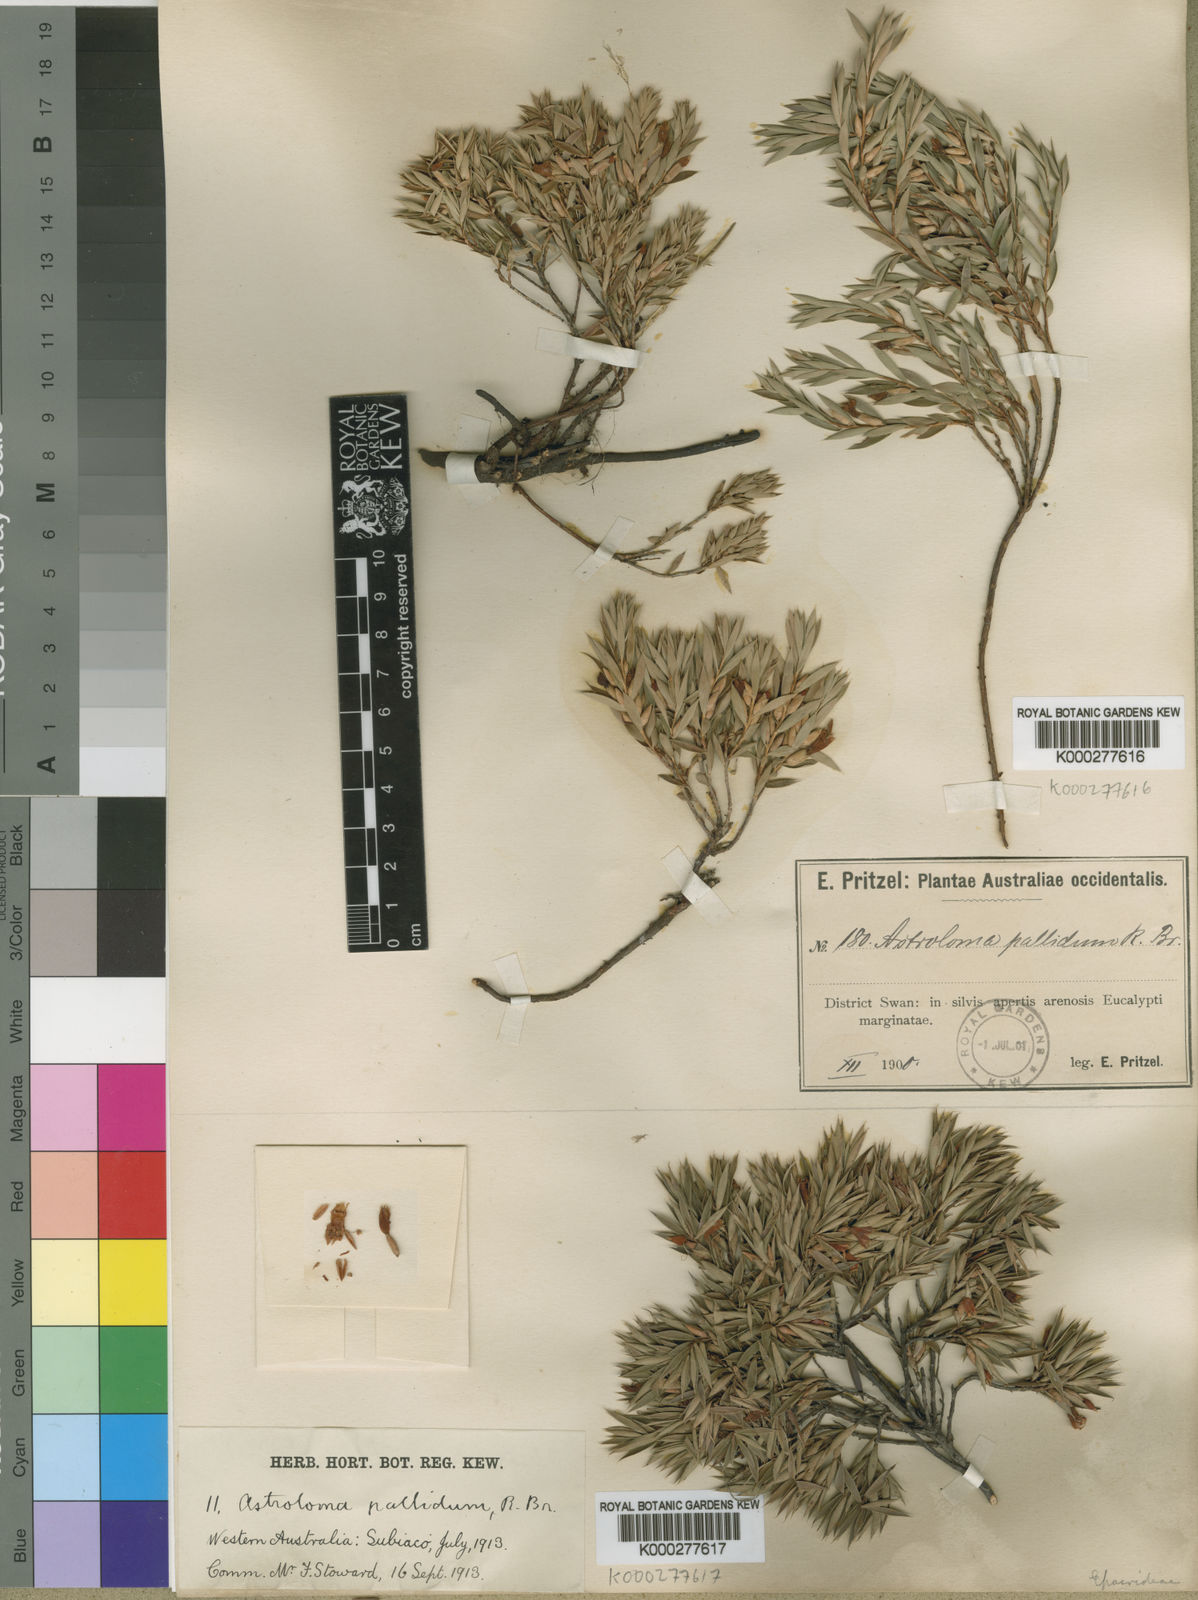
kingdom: Plantae
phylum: Tracheophyta
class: Magnoliopsida
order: Ericales
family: Ericaceae
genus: Styphelia
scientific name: Styphelia pallida
